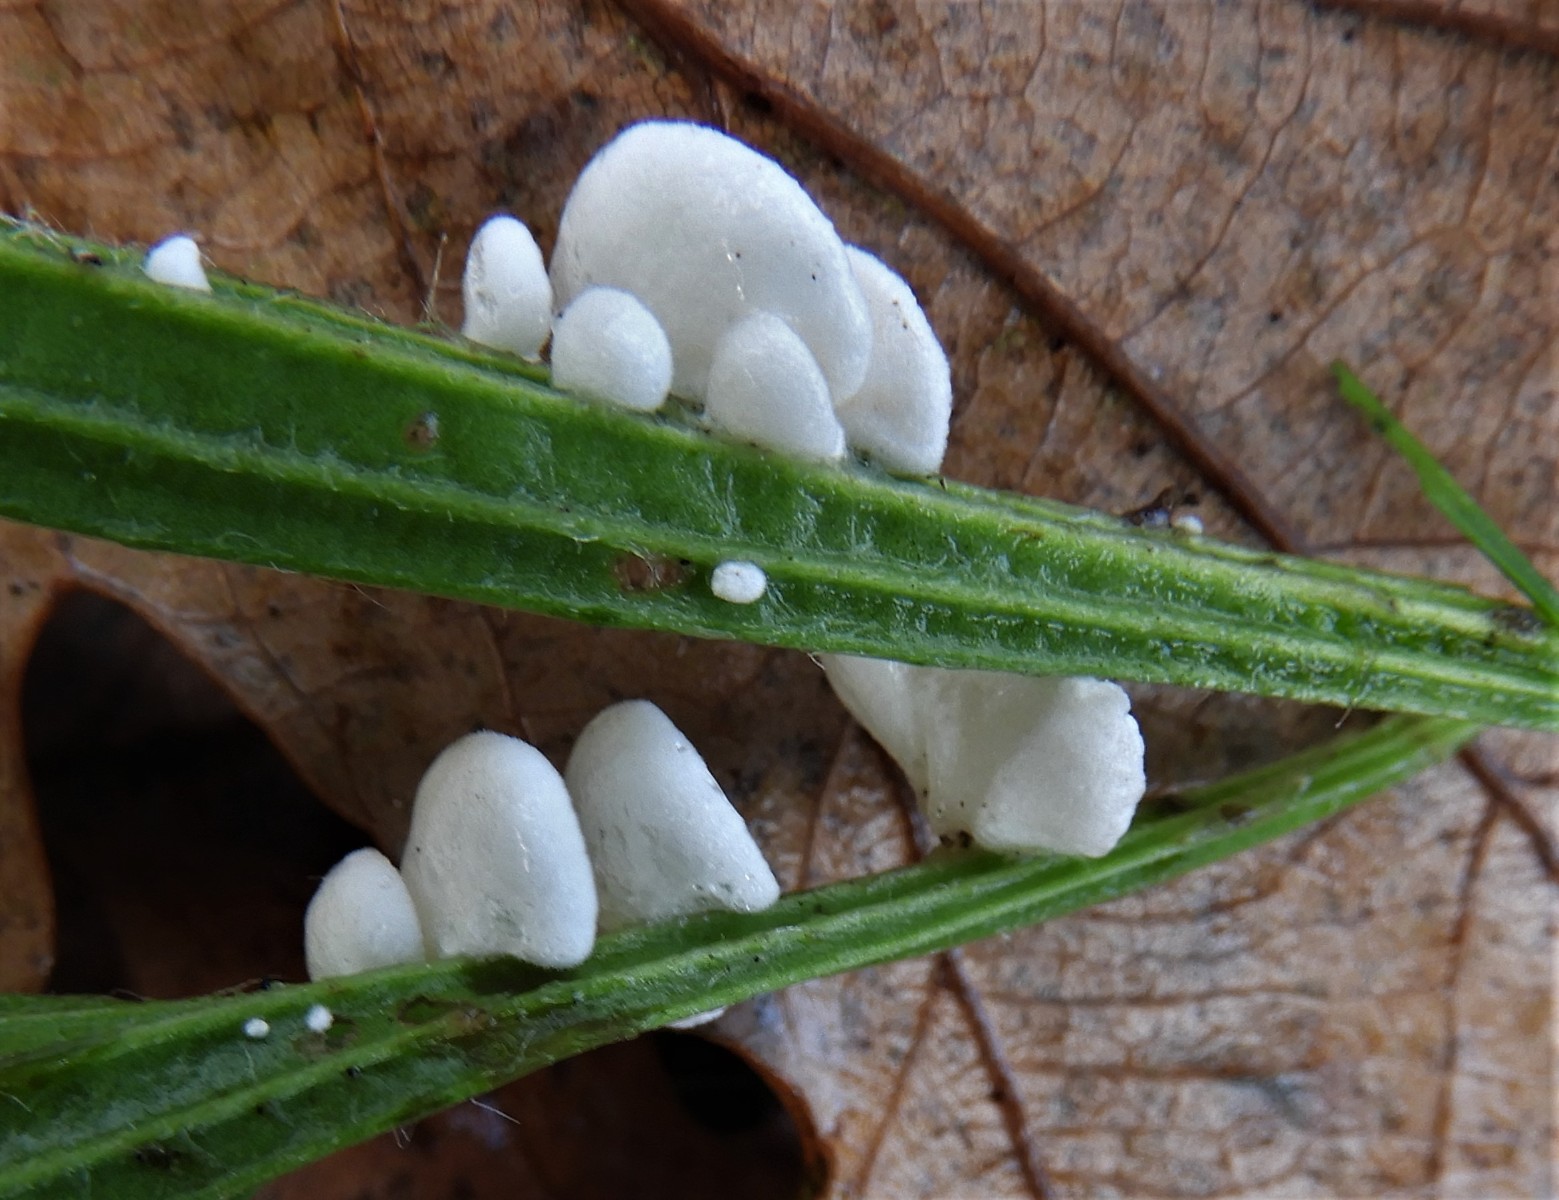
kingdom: Fungi
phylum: Basidiomycota
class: Agaricomycetes
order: Agaricales
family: Crepidotaceae
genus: Crepidotus
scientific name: Crepidotus
